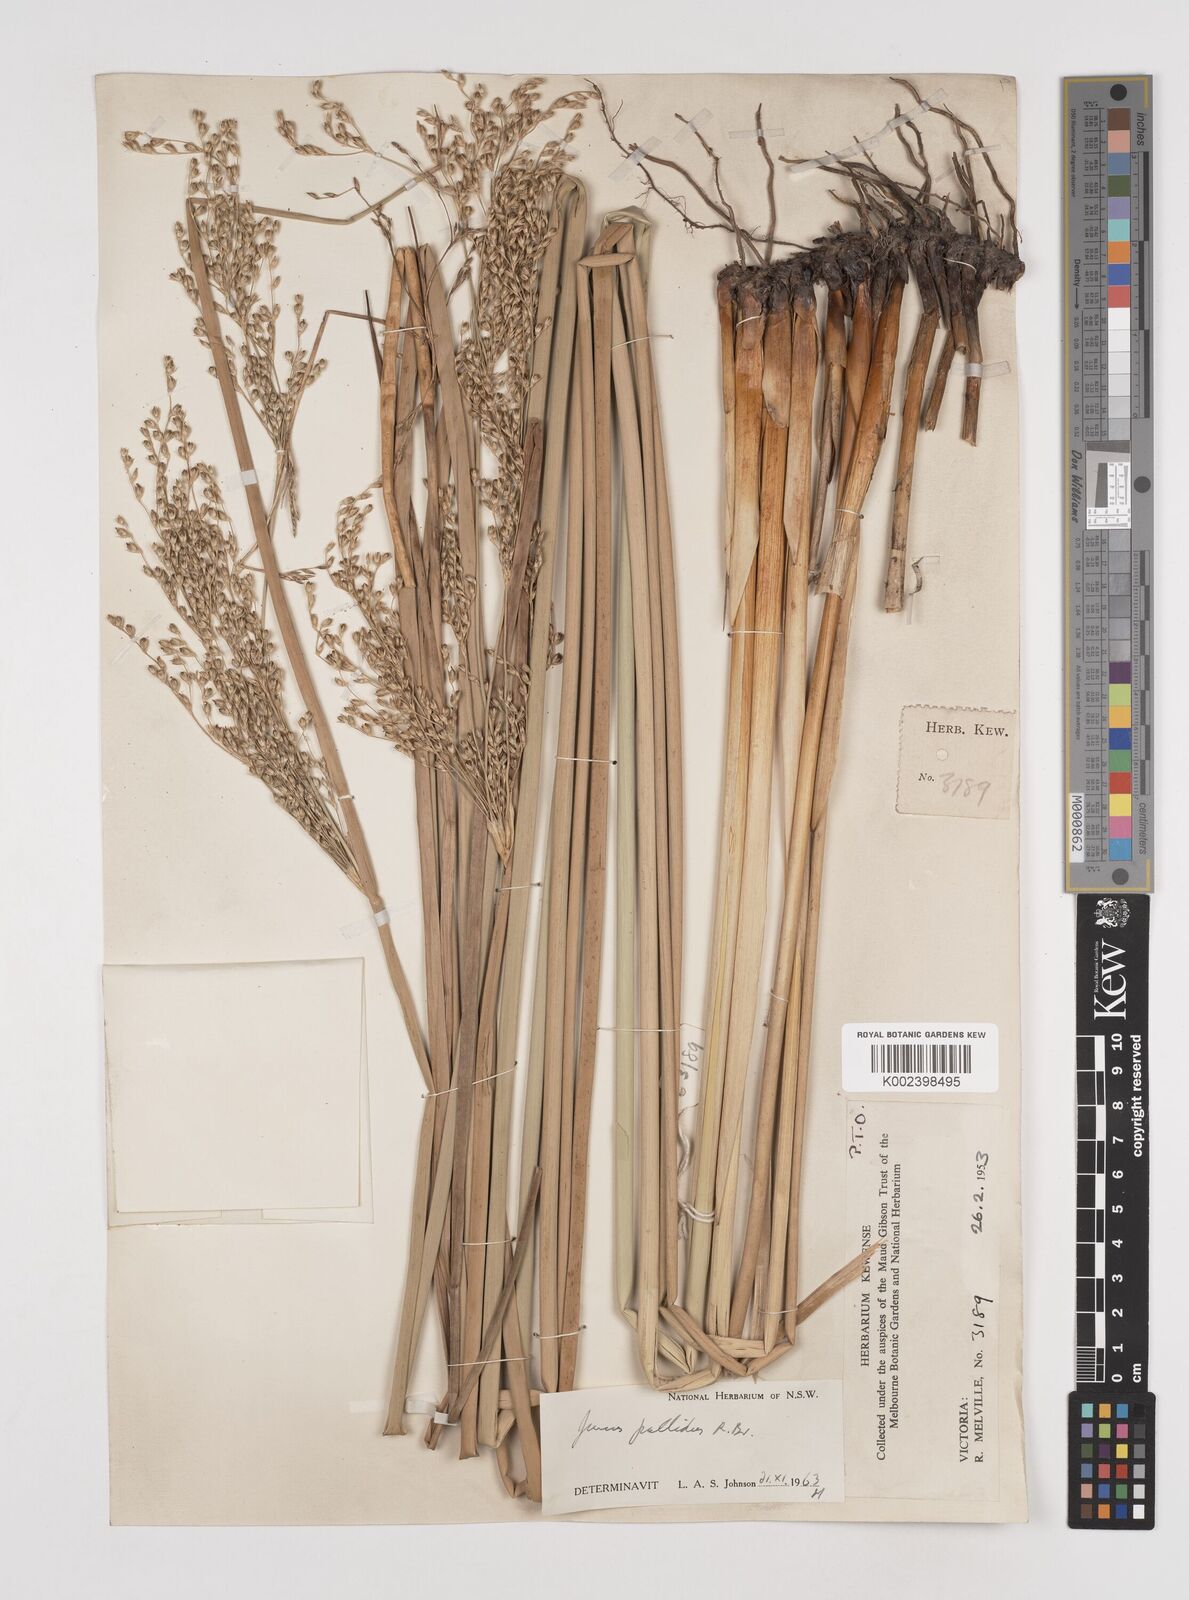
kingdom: Plantae
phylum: Tracheophyta
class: Liliopsida
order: Poales
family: Juncaceae
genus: Juncus
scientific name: Juncus pallidus
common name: Great soft-rush
